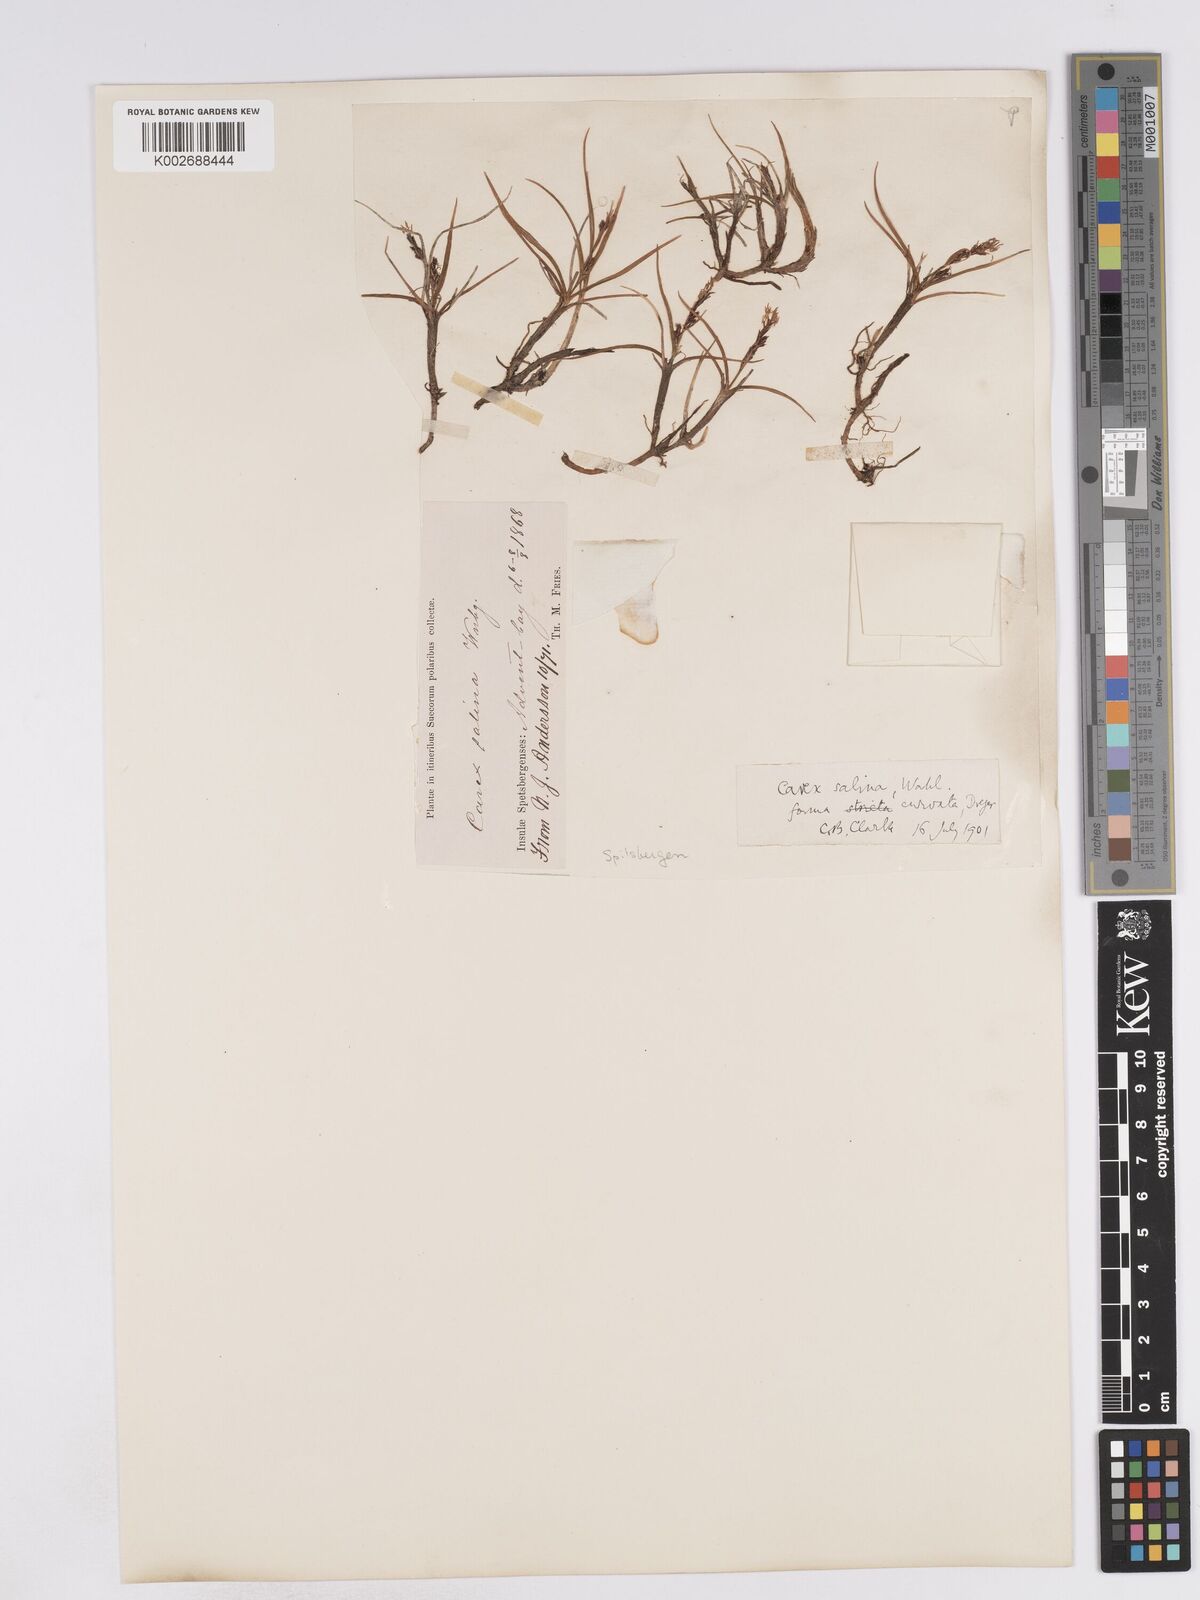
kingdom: Plantae
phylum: Tracheophyta
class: Liliopsida
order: Poales
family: Cyperaceae
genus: Carex
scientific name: Carex subspathacea
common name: Hoppner's sedge
